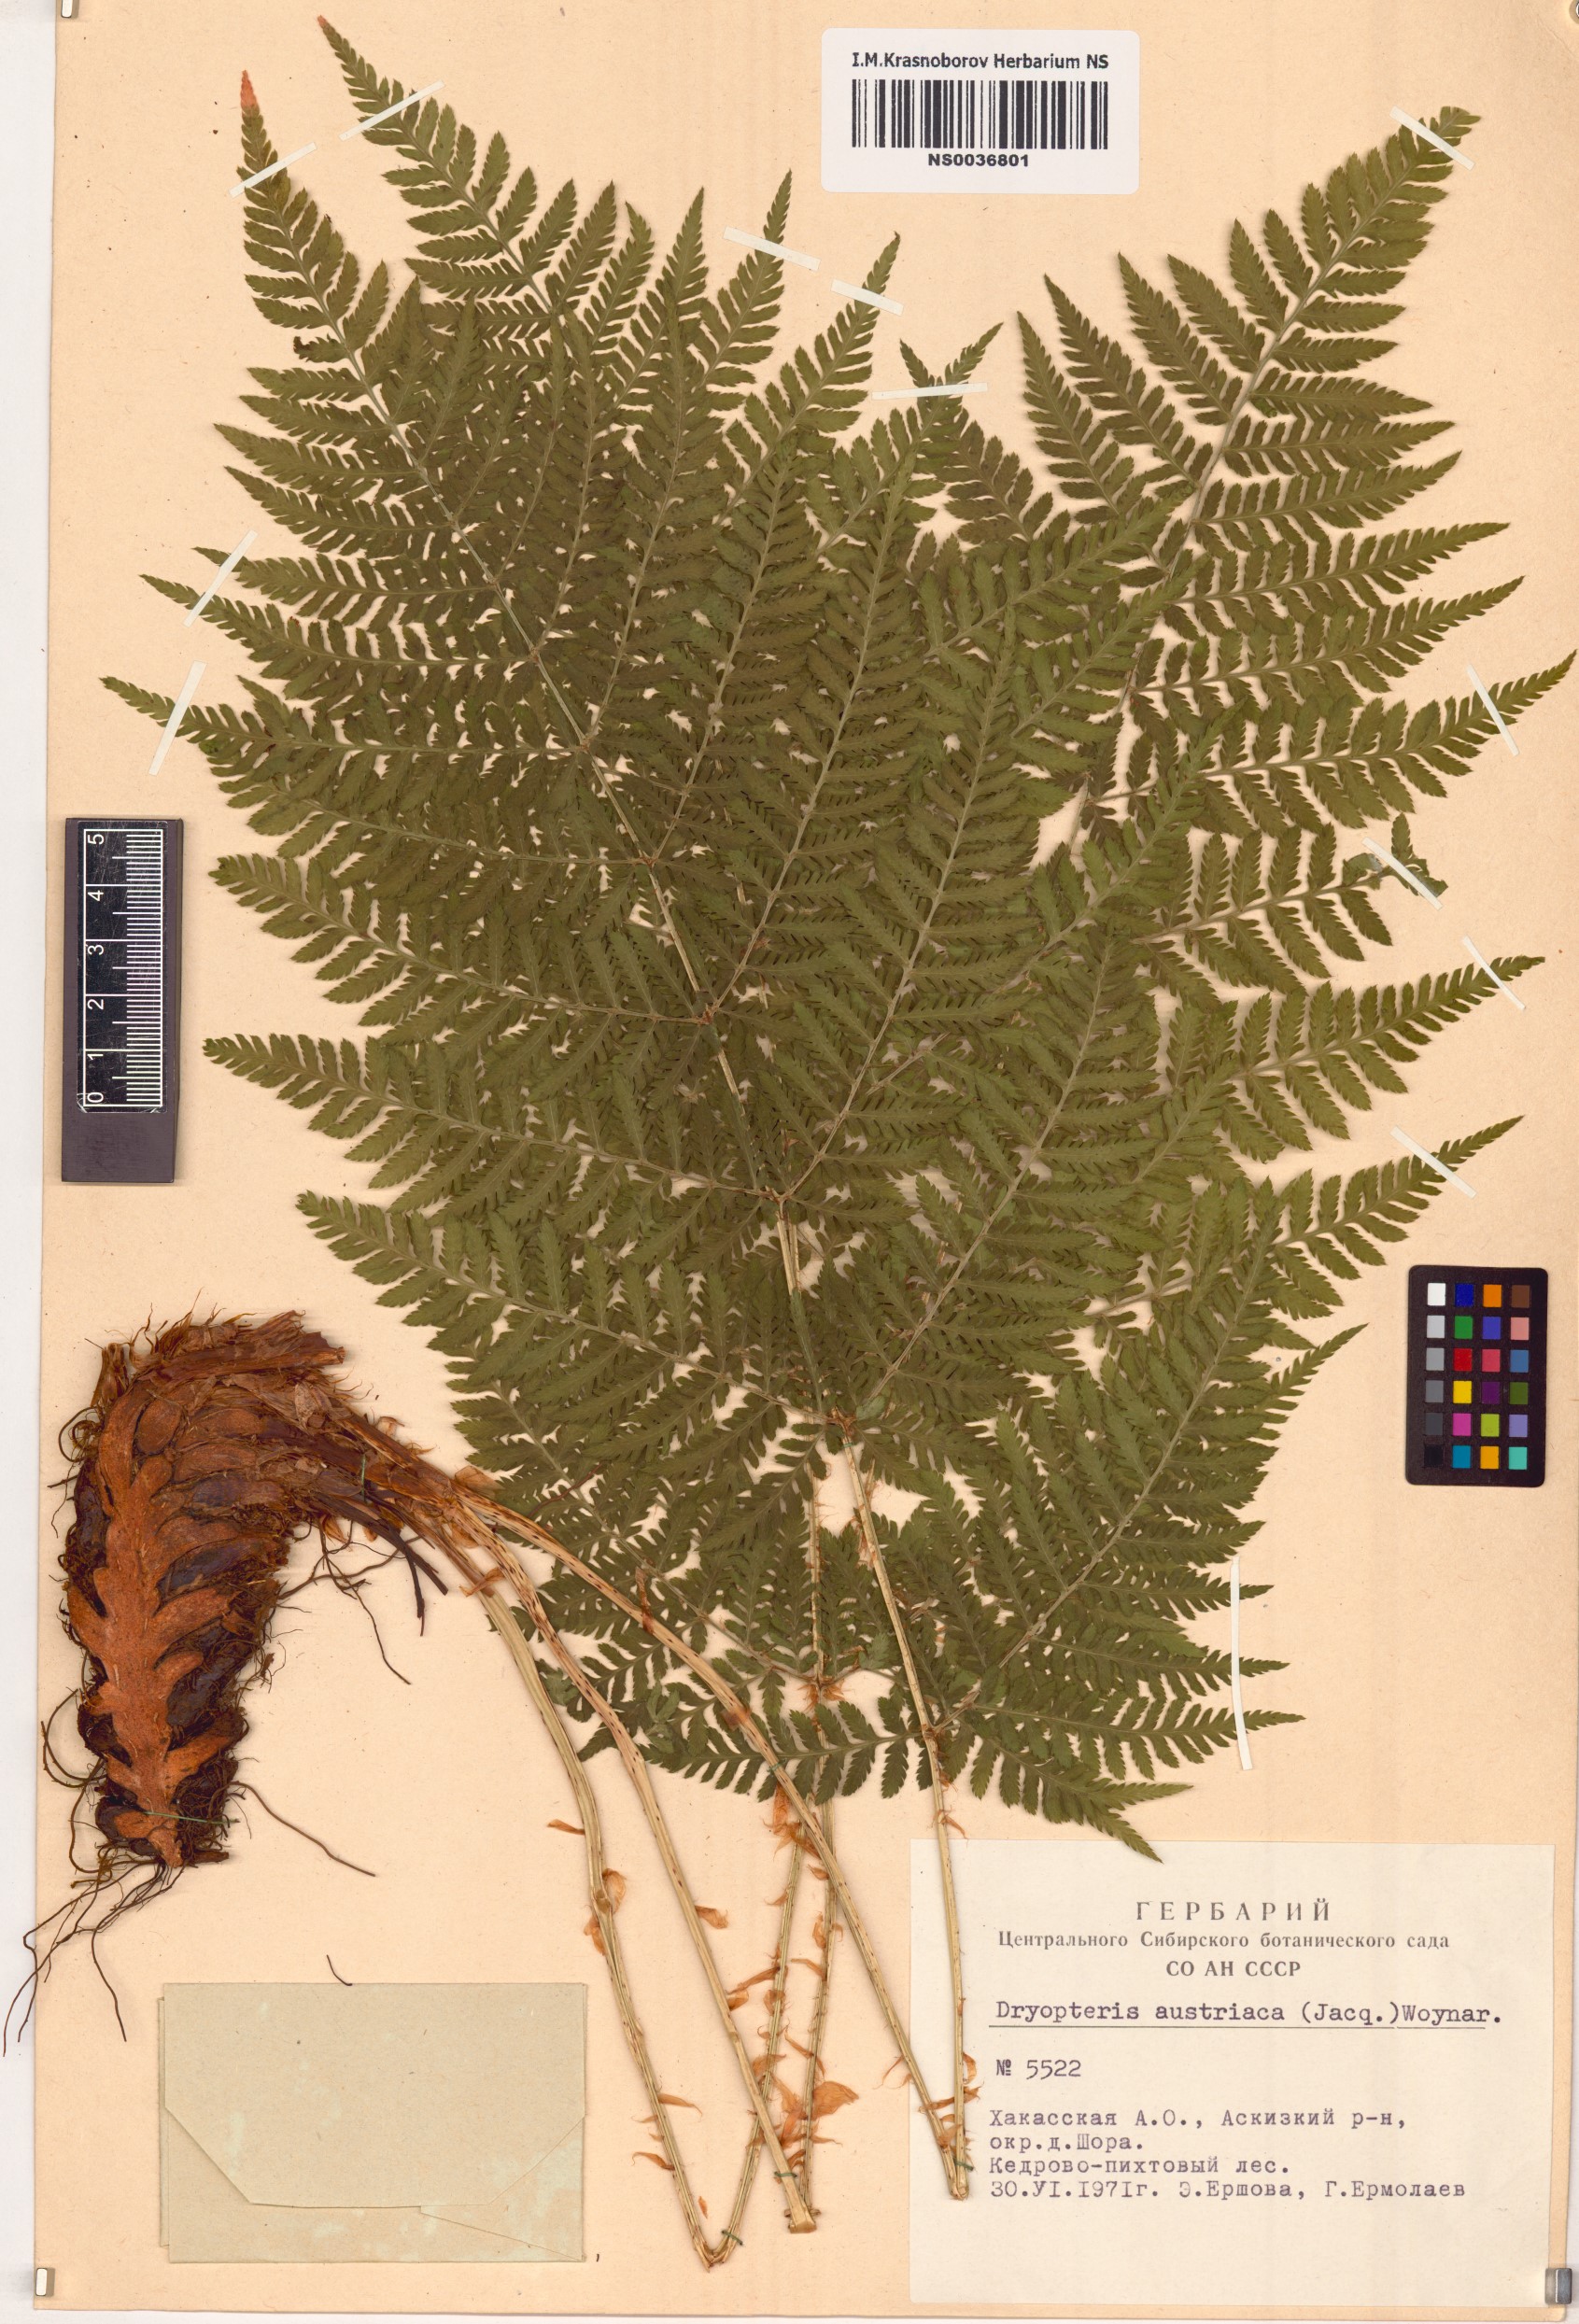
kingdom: Plantae
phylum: Tracheophyta
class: Polypodiopsida
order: Polypodiales
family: Dryopteridaceae
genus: Dryopteris
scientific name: Dryopteris dilatata
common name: Broad buckler-fern
